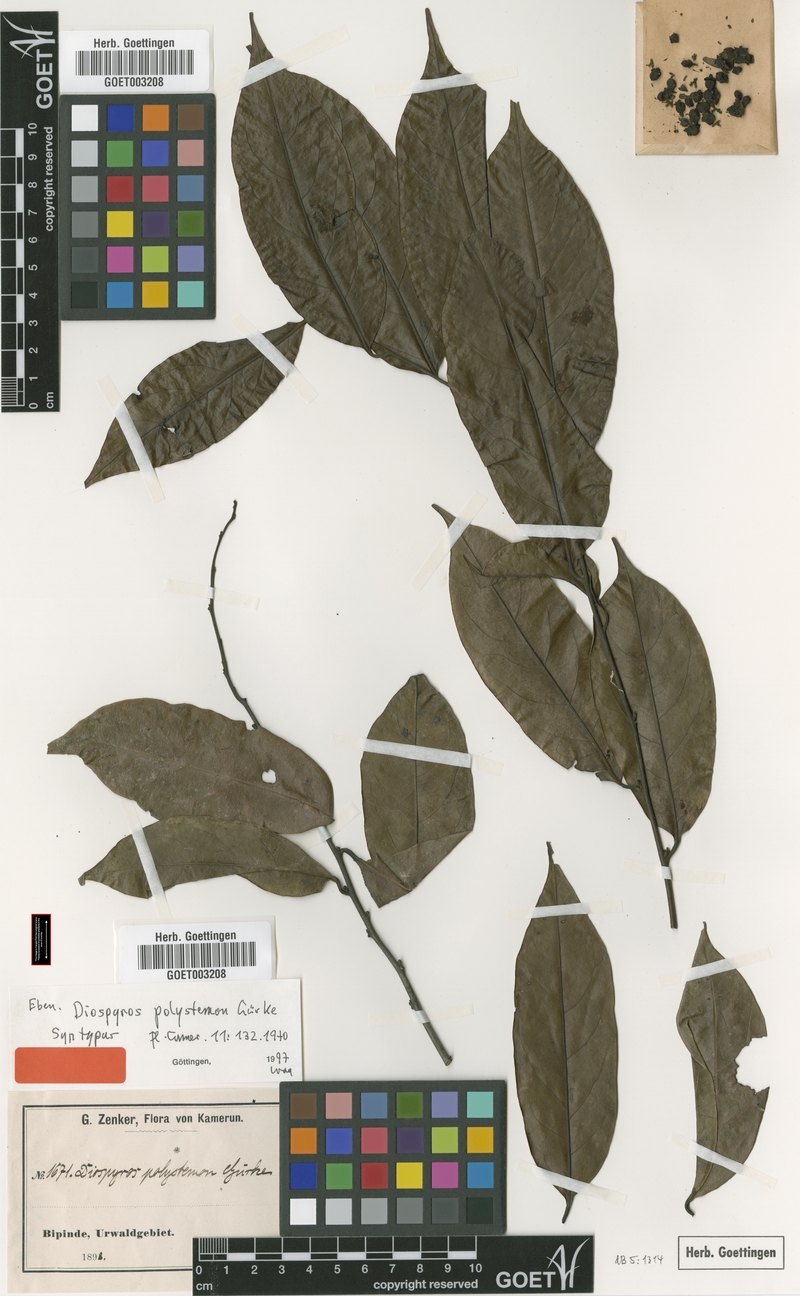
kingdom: Plantae
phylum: Tracheophyta
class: Magnoliopsida
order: Ericales
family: Ebenaceae
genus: Diospyros
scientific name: Diospyros polystemon
